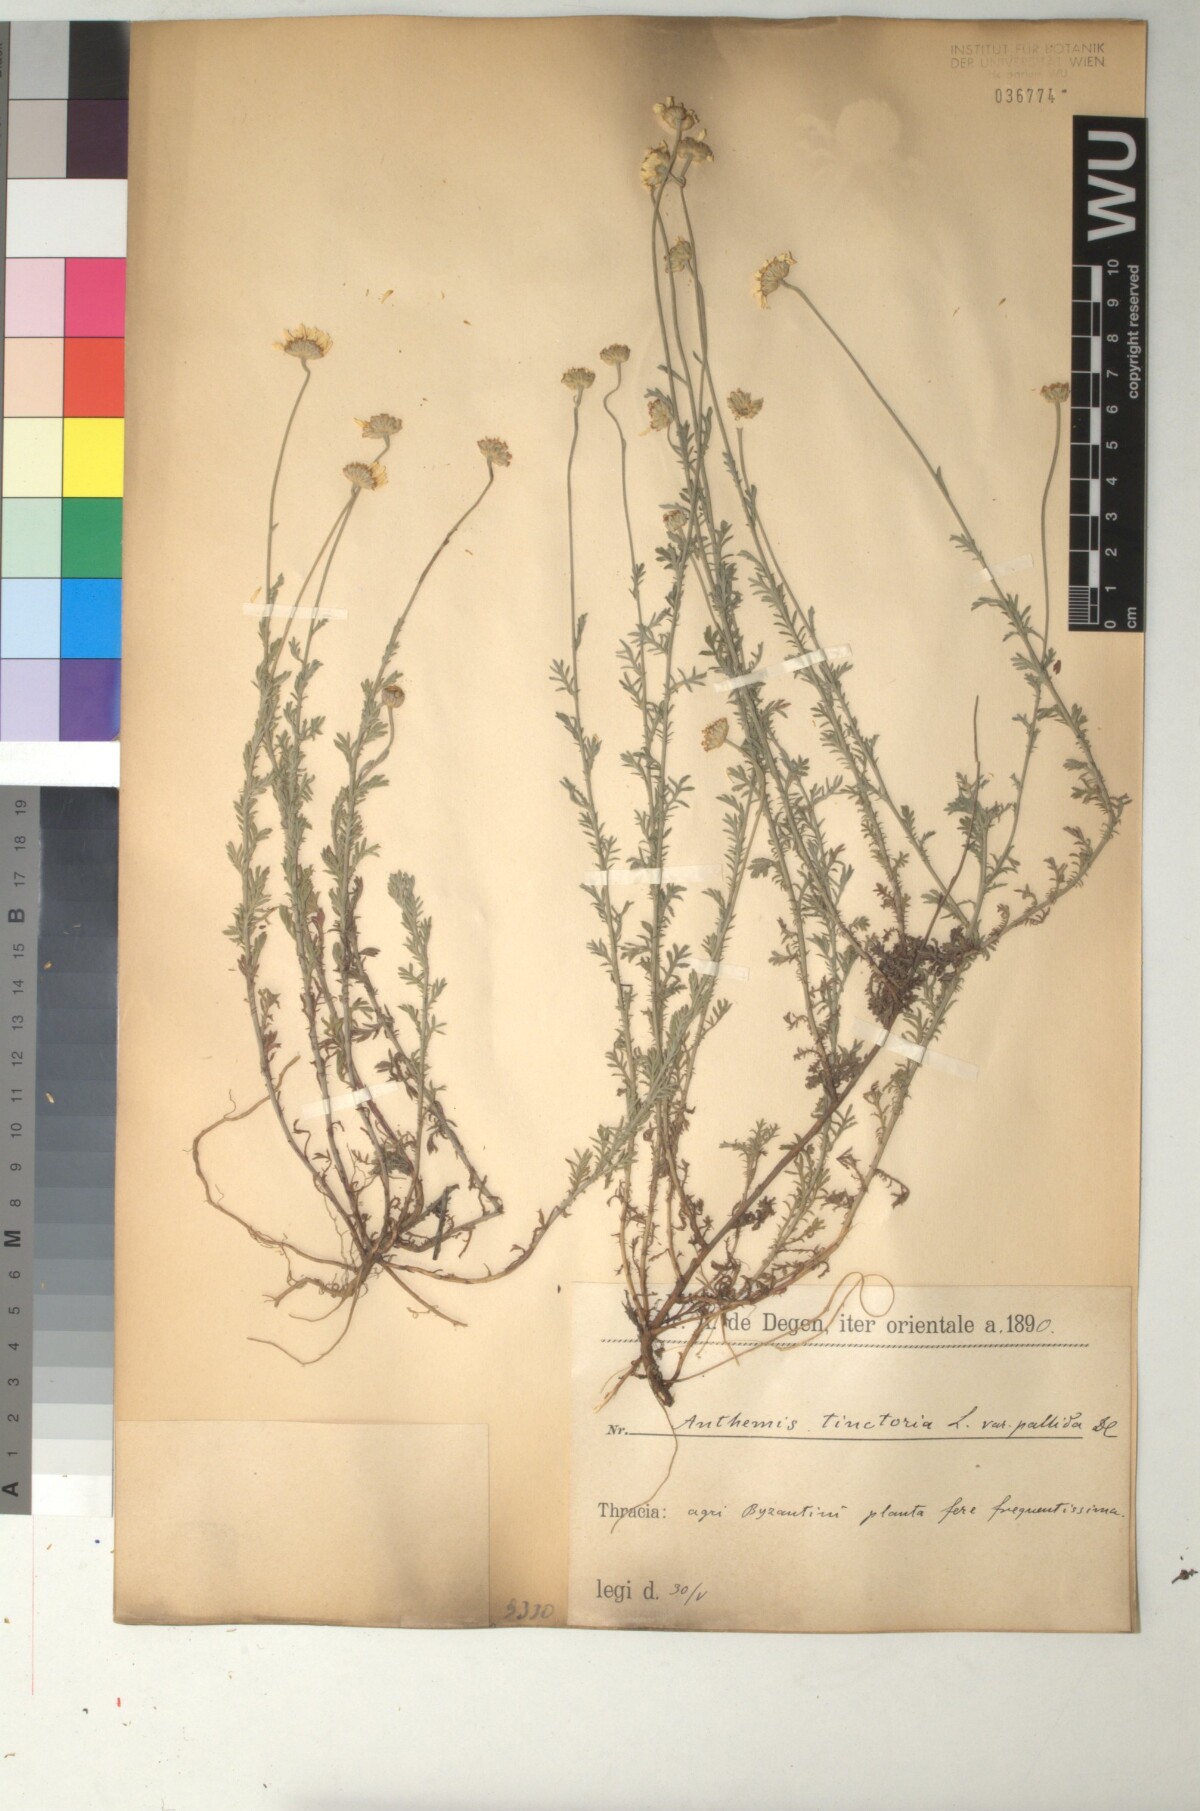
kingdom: Plantae
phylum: Tracheophyta
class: Magnoliopsida
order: Asterales
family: Asteraceae
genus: Cota
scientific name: Cota tinctoria
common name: Golden chamomile
